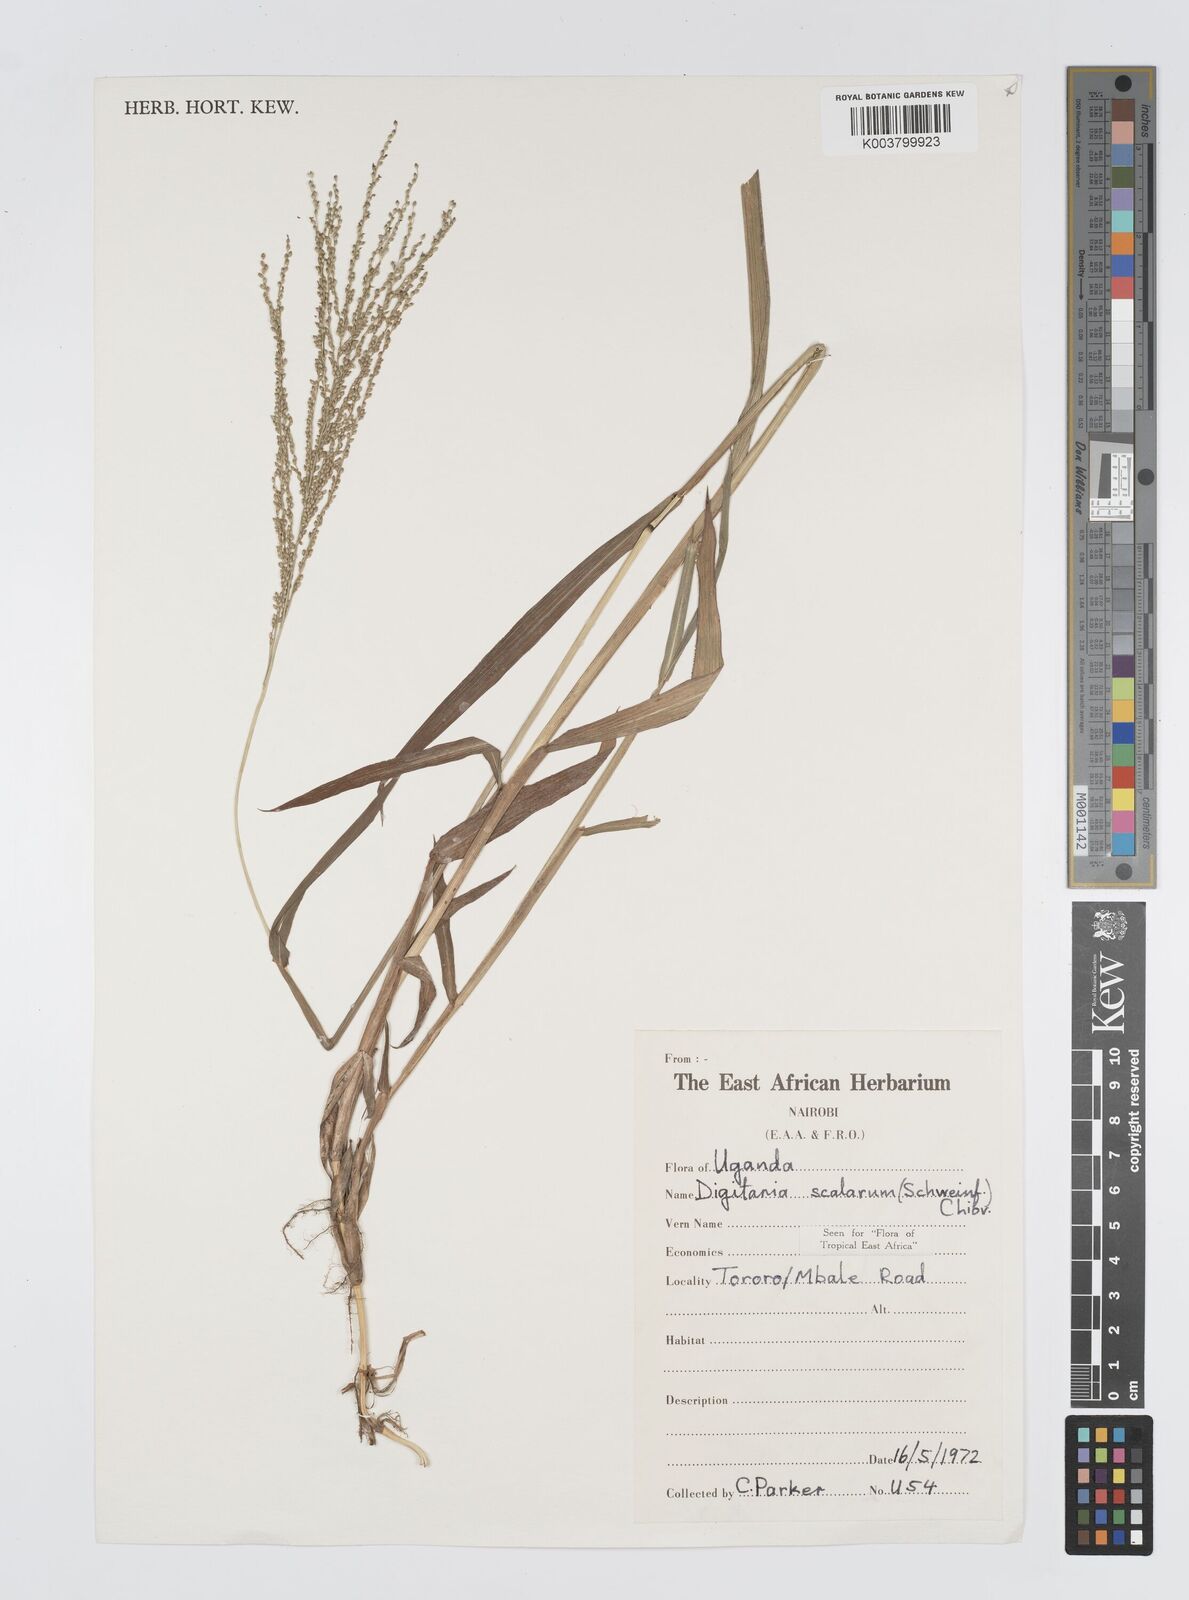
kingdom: Plantae
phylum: Tracheophyta
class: Liliopsida
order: Poales
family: Poaceae
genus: Digitaria
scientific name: Digitaria abyssinica
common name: African couchgrass
